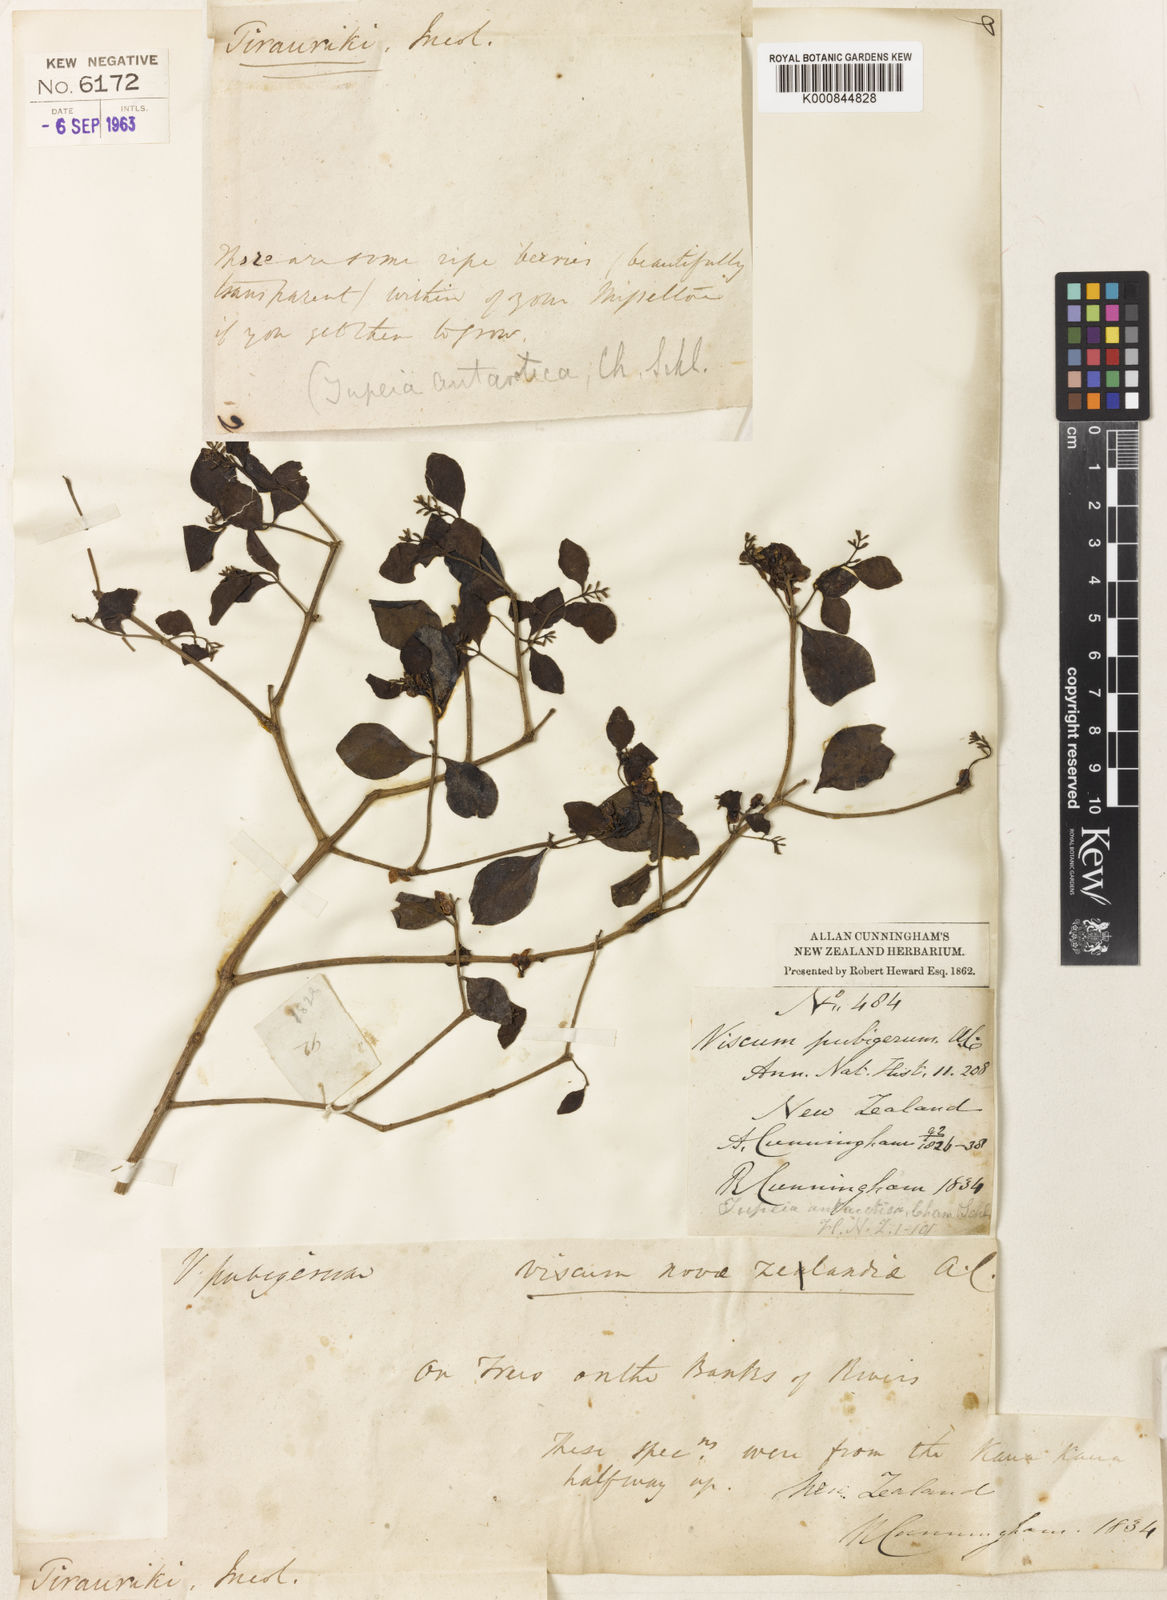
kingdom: Plantae
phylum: Tracheophyta
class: Magnoliopsida
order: Santalales
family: Loranthaceae
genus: Tupeia
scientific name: Tupeia antarctica
